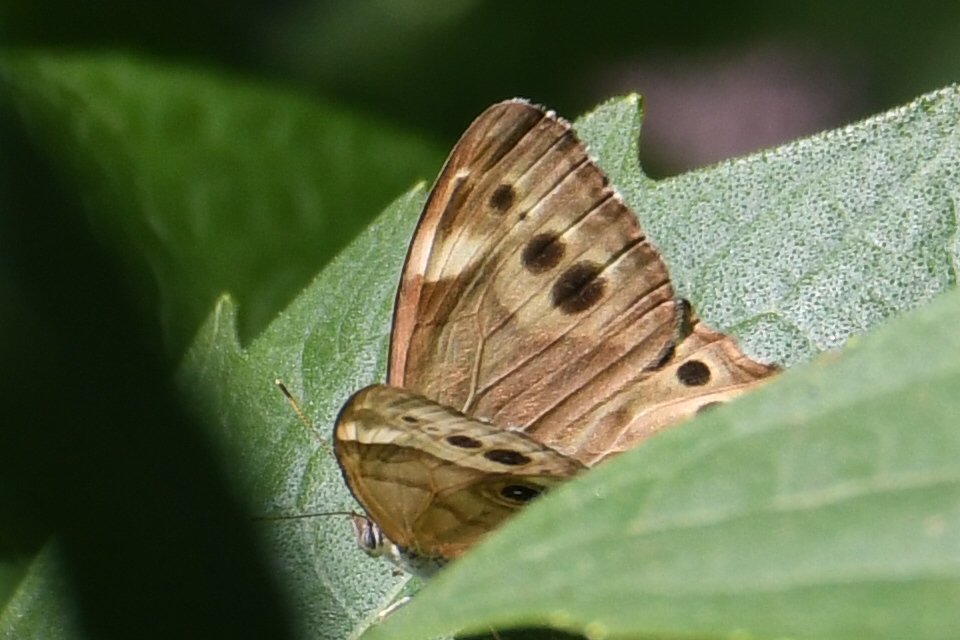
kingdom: Animalia
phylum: Arthropoda
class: Insecta
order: Lepidoptera
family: Nymphalidae
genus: Lethe
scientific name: Lethe anthedon
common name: Northern Pearly-Eye
